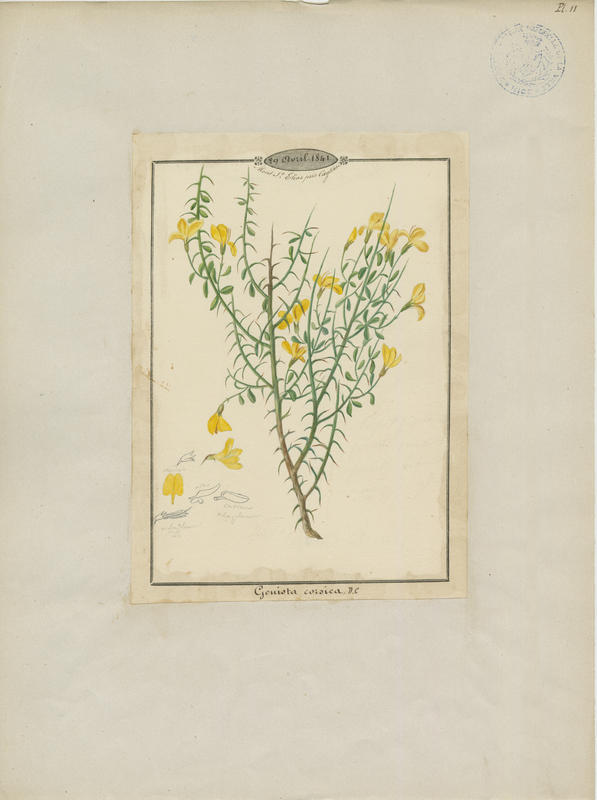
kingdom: Plantae
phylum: Tracheophyta
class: Magnoliopsida
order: Fabales
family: Fabaceae
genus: Genista
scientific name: Genista corsica
